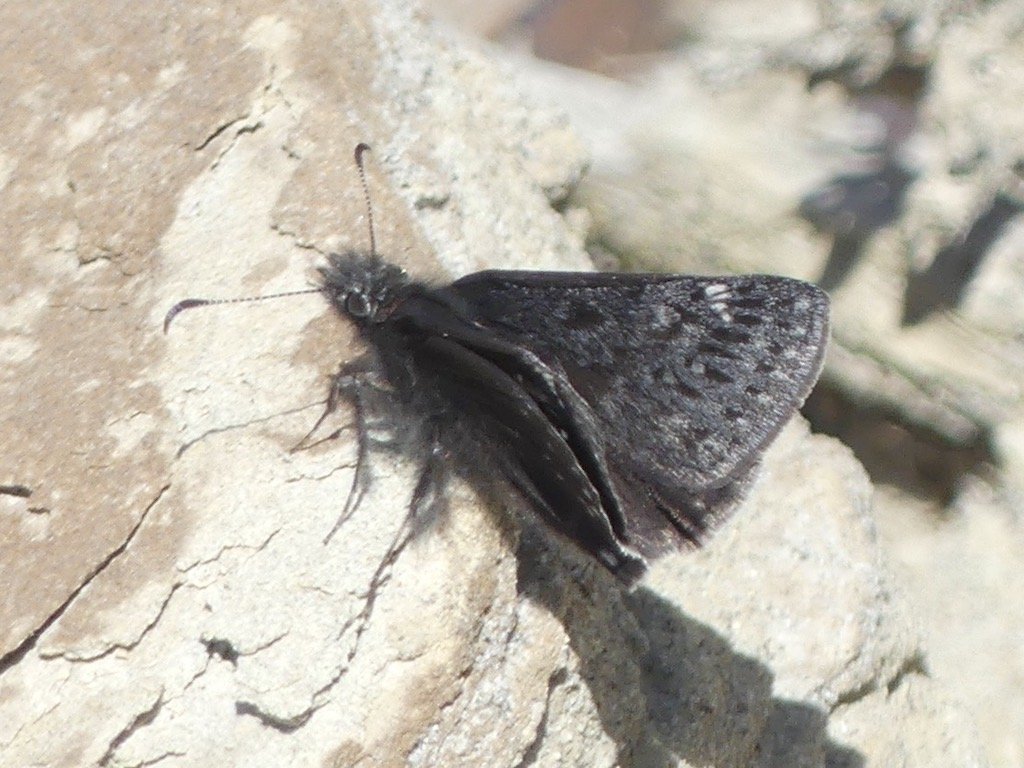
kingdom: Animalia
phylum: Arthropoda
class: Insecta
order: Lepidoptera
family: Hesperiidae
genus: Erynnis
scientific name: Erynnis icelus
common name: Dreamy Duskywing
